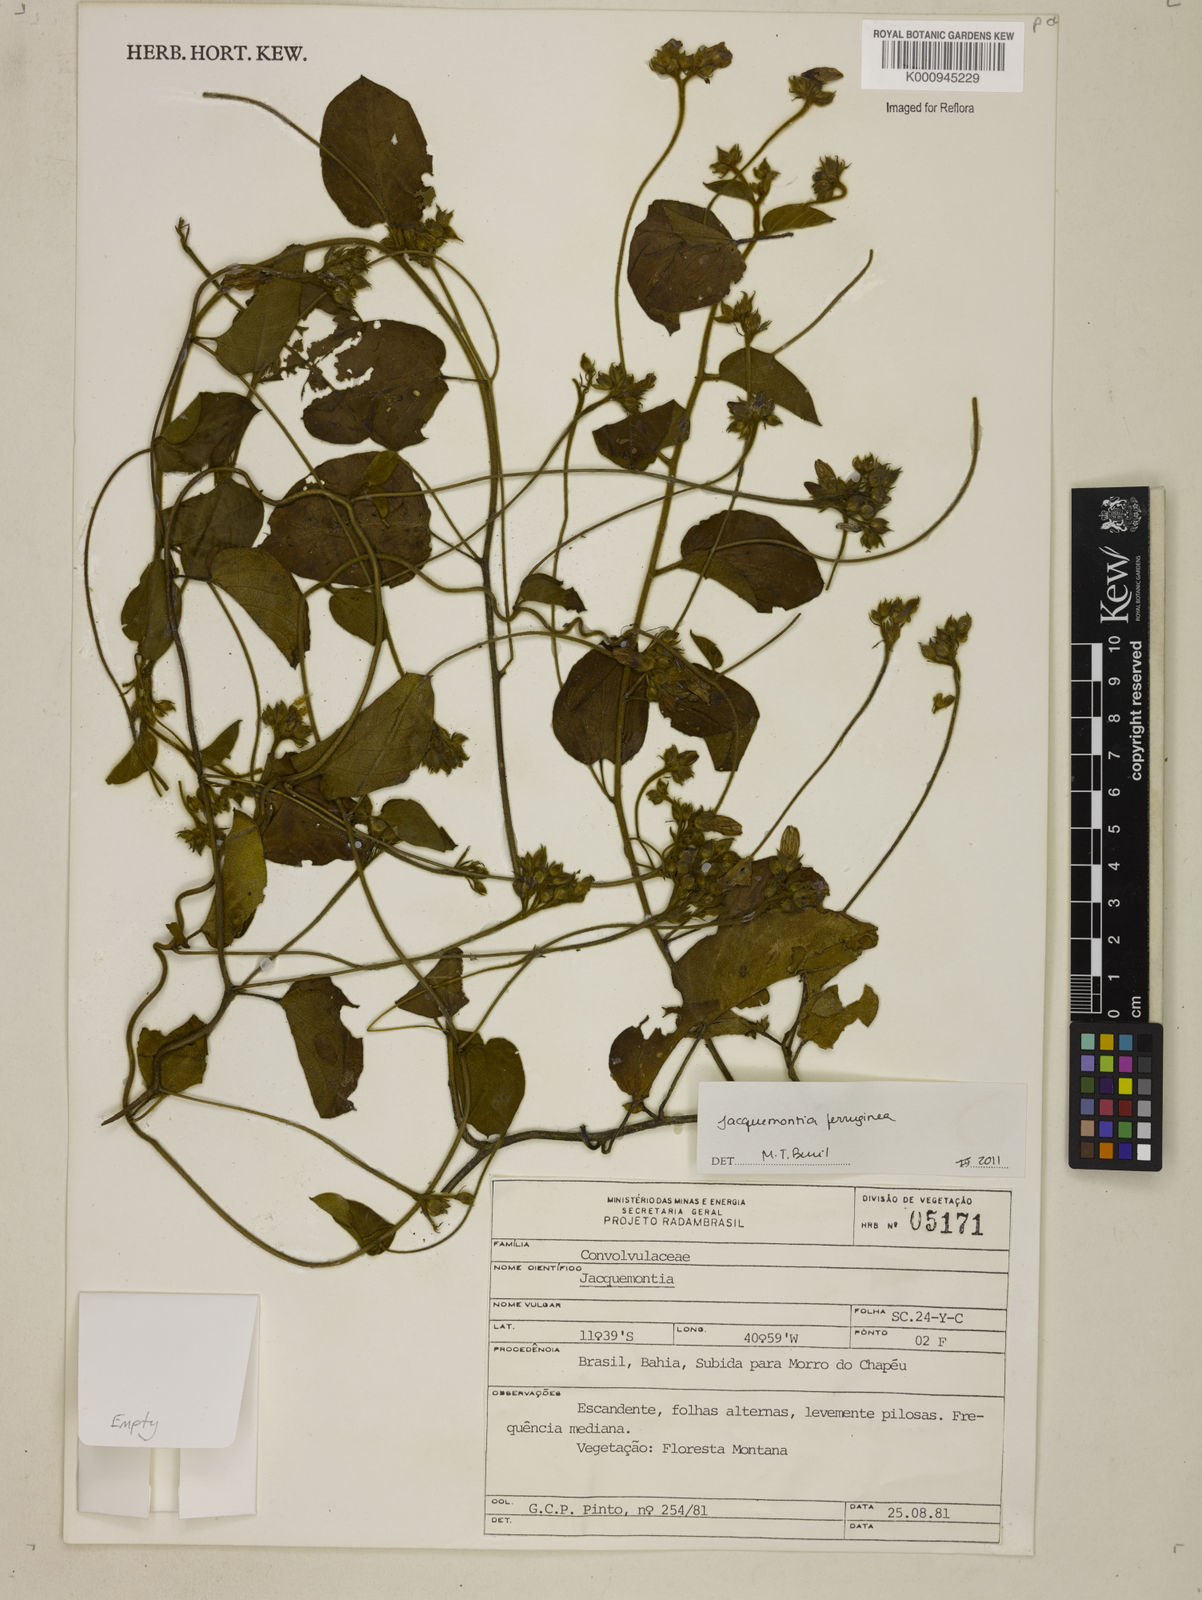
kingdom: Plantae
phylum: Tracheophyta
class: Magnoliopsida
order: Solanales
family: Convolvulaceae
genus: Jacquemontia
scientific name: Jacquemontia cumanensis
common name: Thicket clustervine
